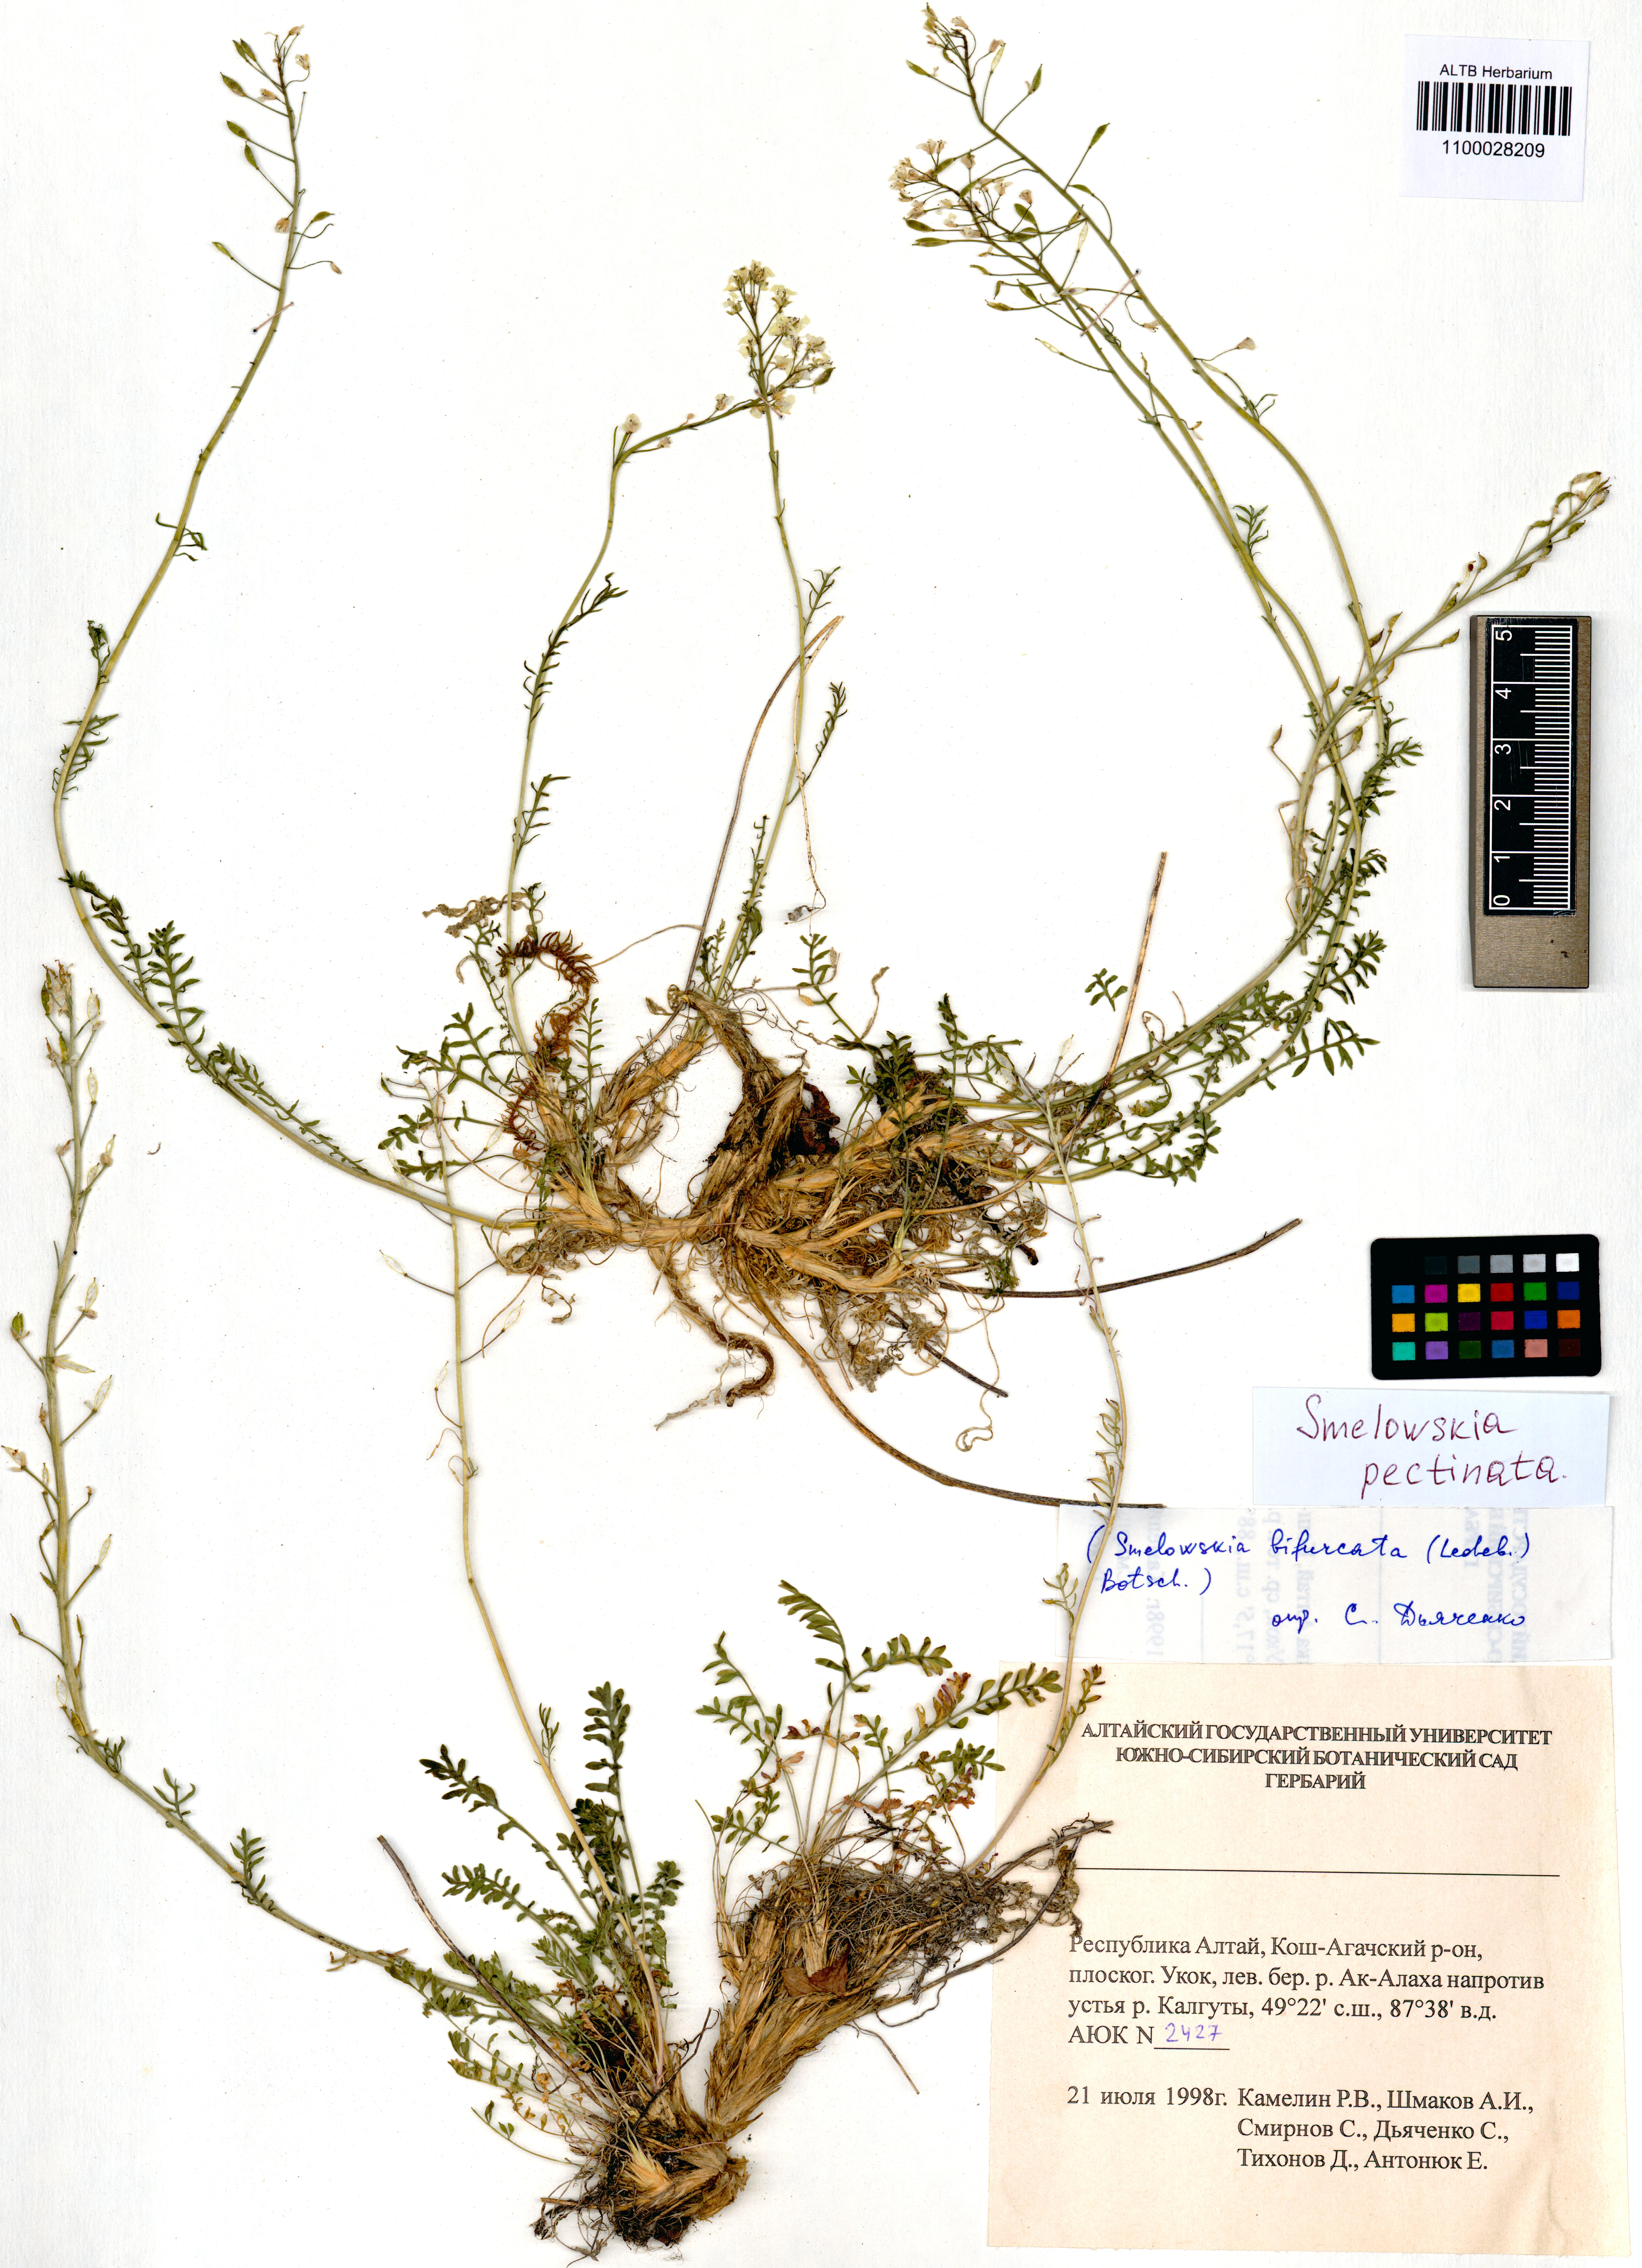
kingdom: Plantae
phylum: Tracheophyta
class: Magnoliopsida
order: Brassicales
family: Brassicaceae
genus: Smelowskia
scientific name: Smelowskia calycina
